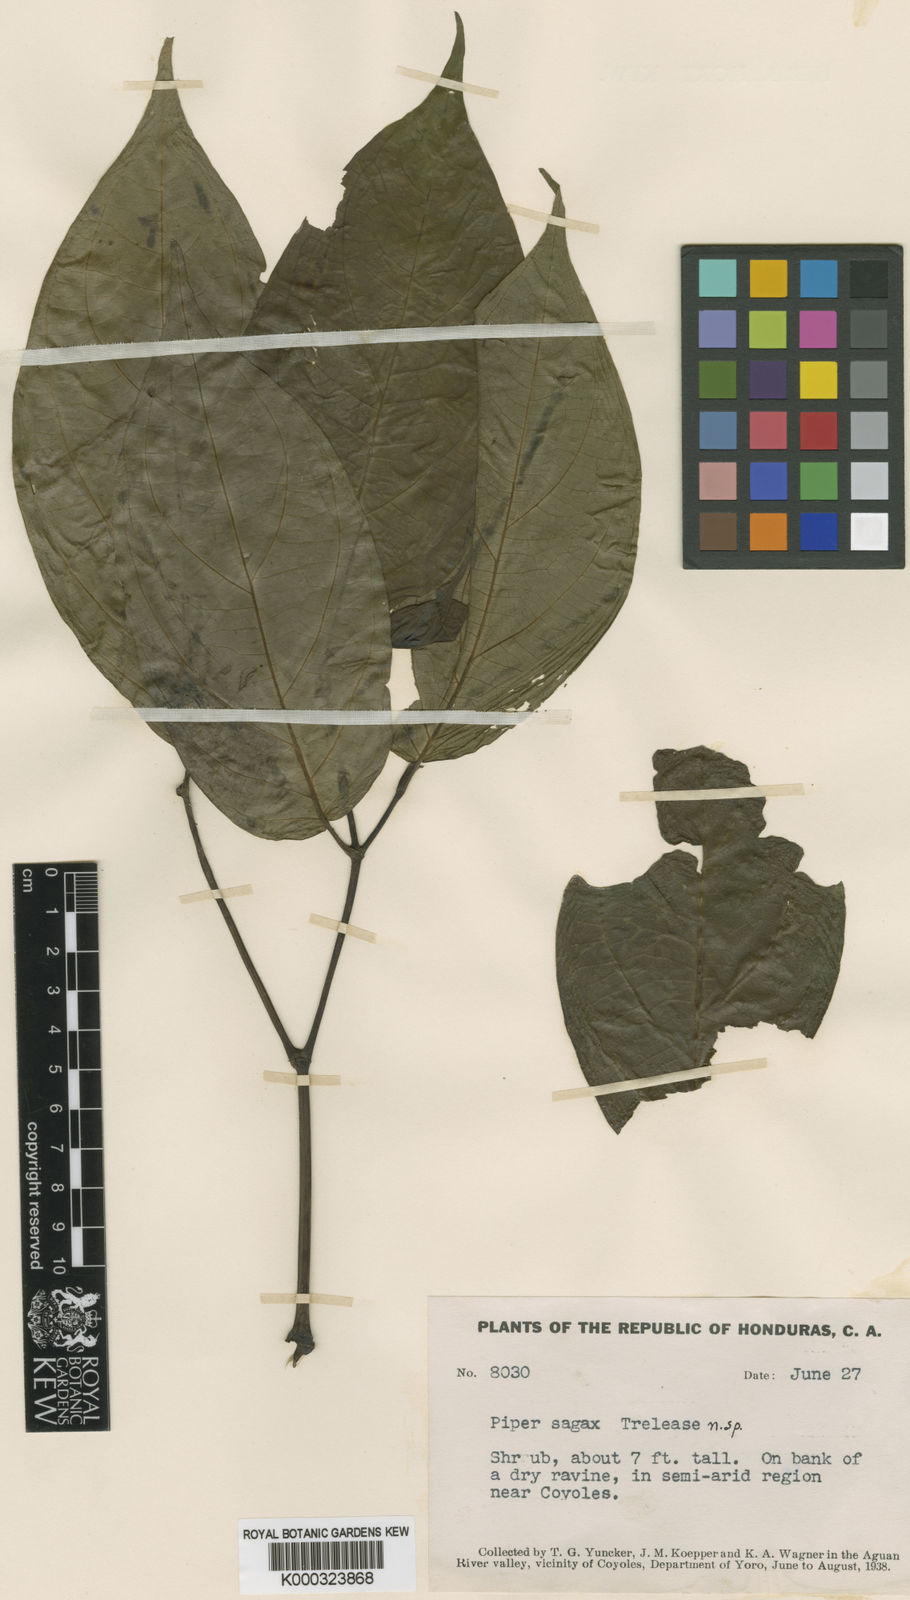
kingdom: Plantae
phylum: Tracheophyta
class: Magnoliopsida
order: Piperales
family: Piperaceae
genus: Piper
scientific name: Piper
